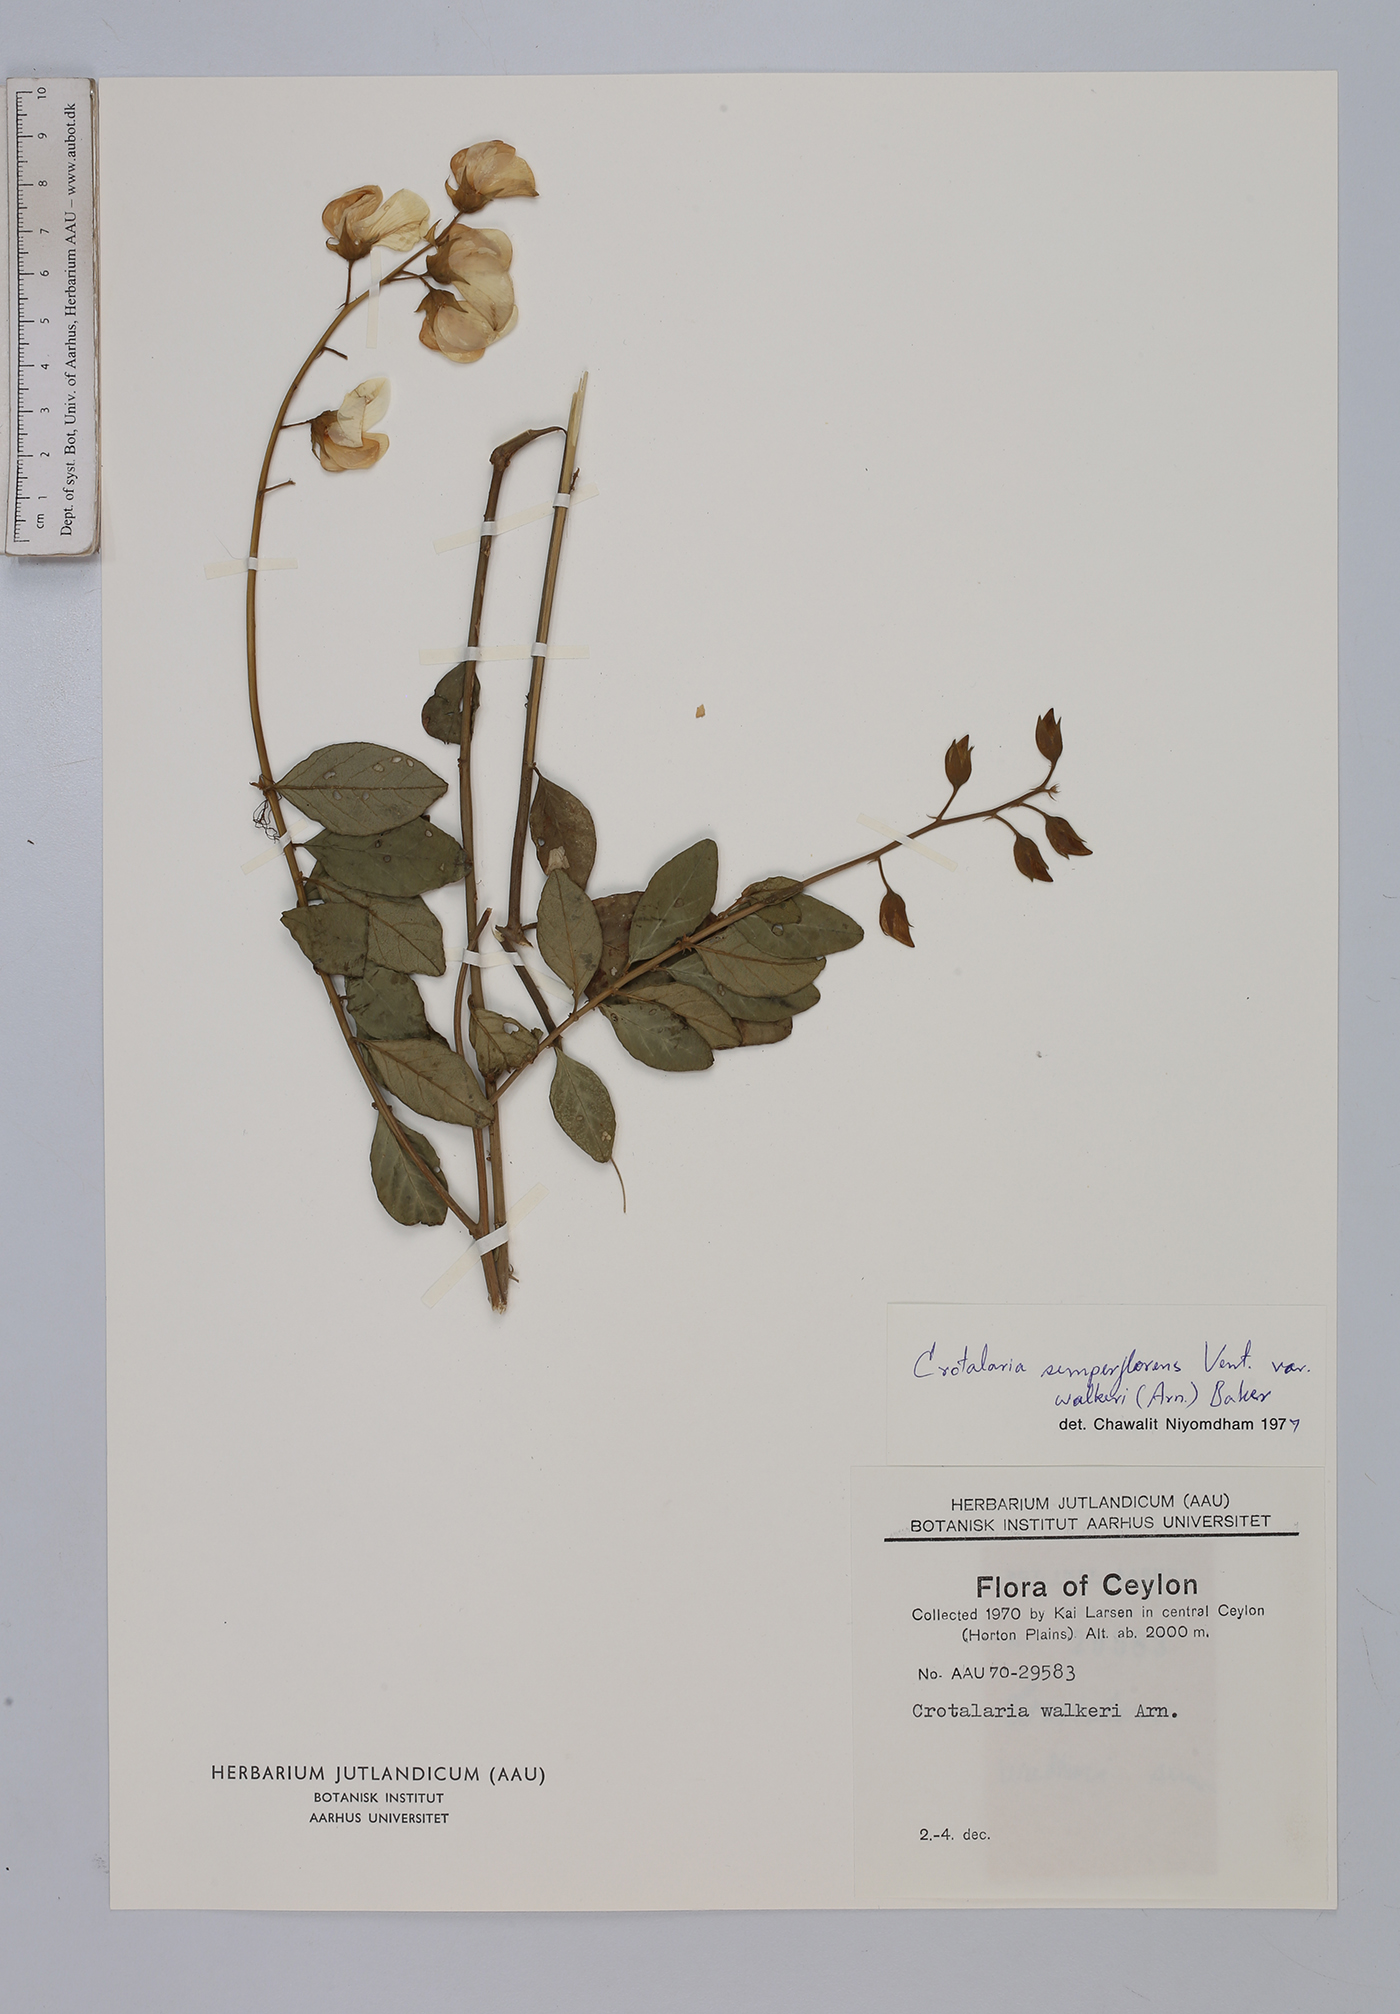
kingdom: Plantae
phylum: Tracheophyta
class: Magnoliopsida
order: Fabales
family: Fabaceae
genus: Crotalaria
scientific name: Crotalaria semperflorens
